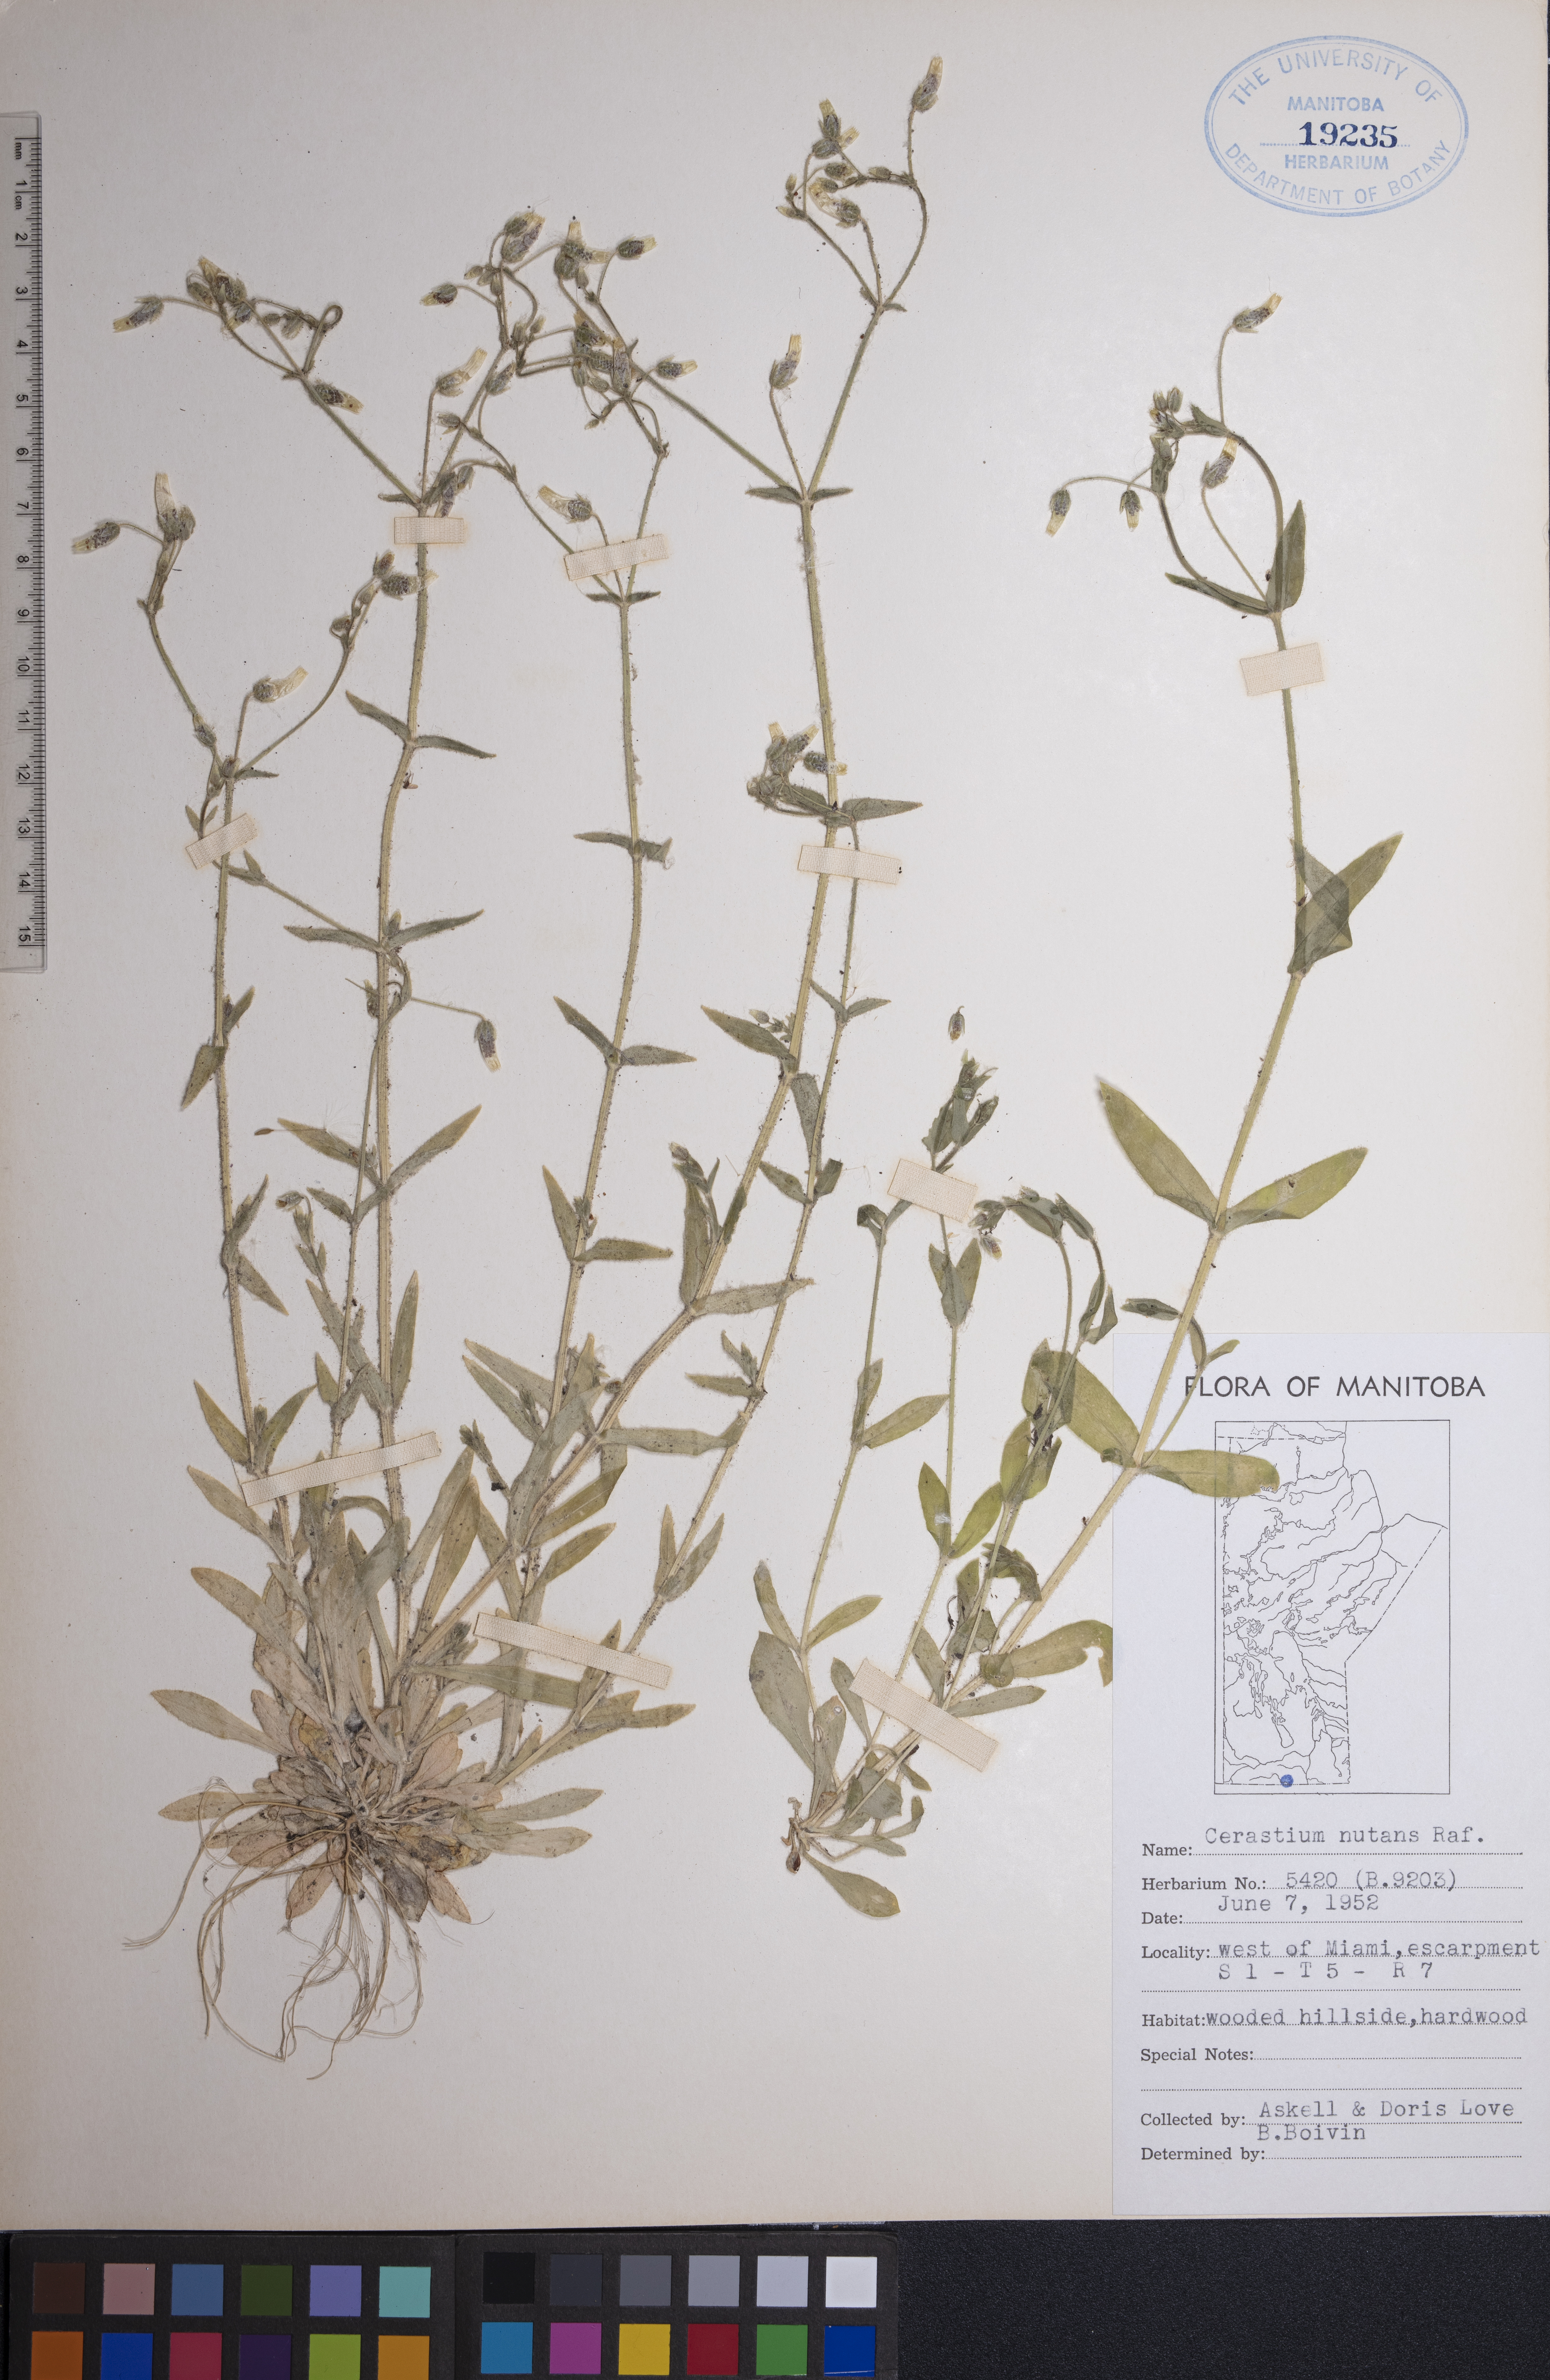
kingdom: Plantae
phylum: Tracheophyta
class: Magnoliopsida
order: Caryophyllales
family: Caryophyllaceae
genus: Cerastium
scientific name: Cerastium nutans
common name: Long-stalked chickweed
